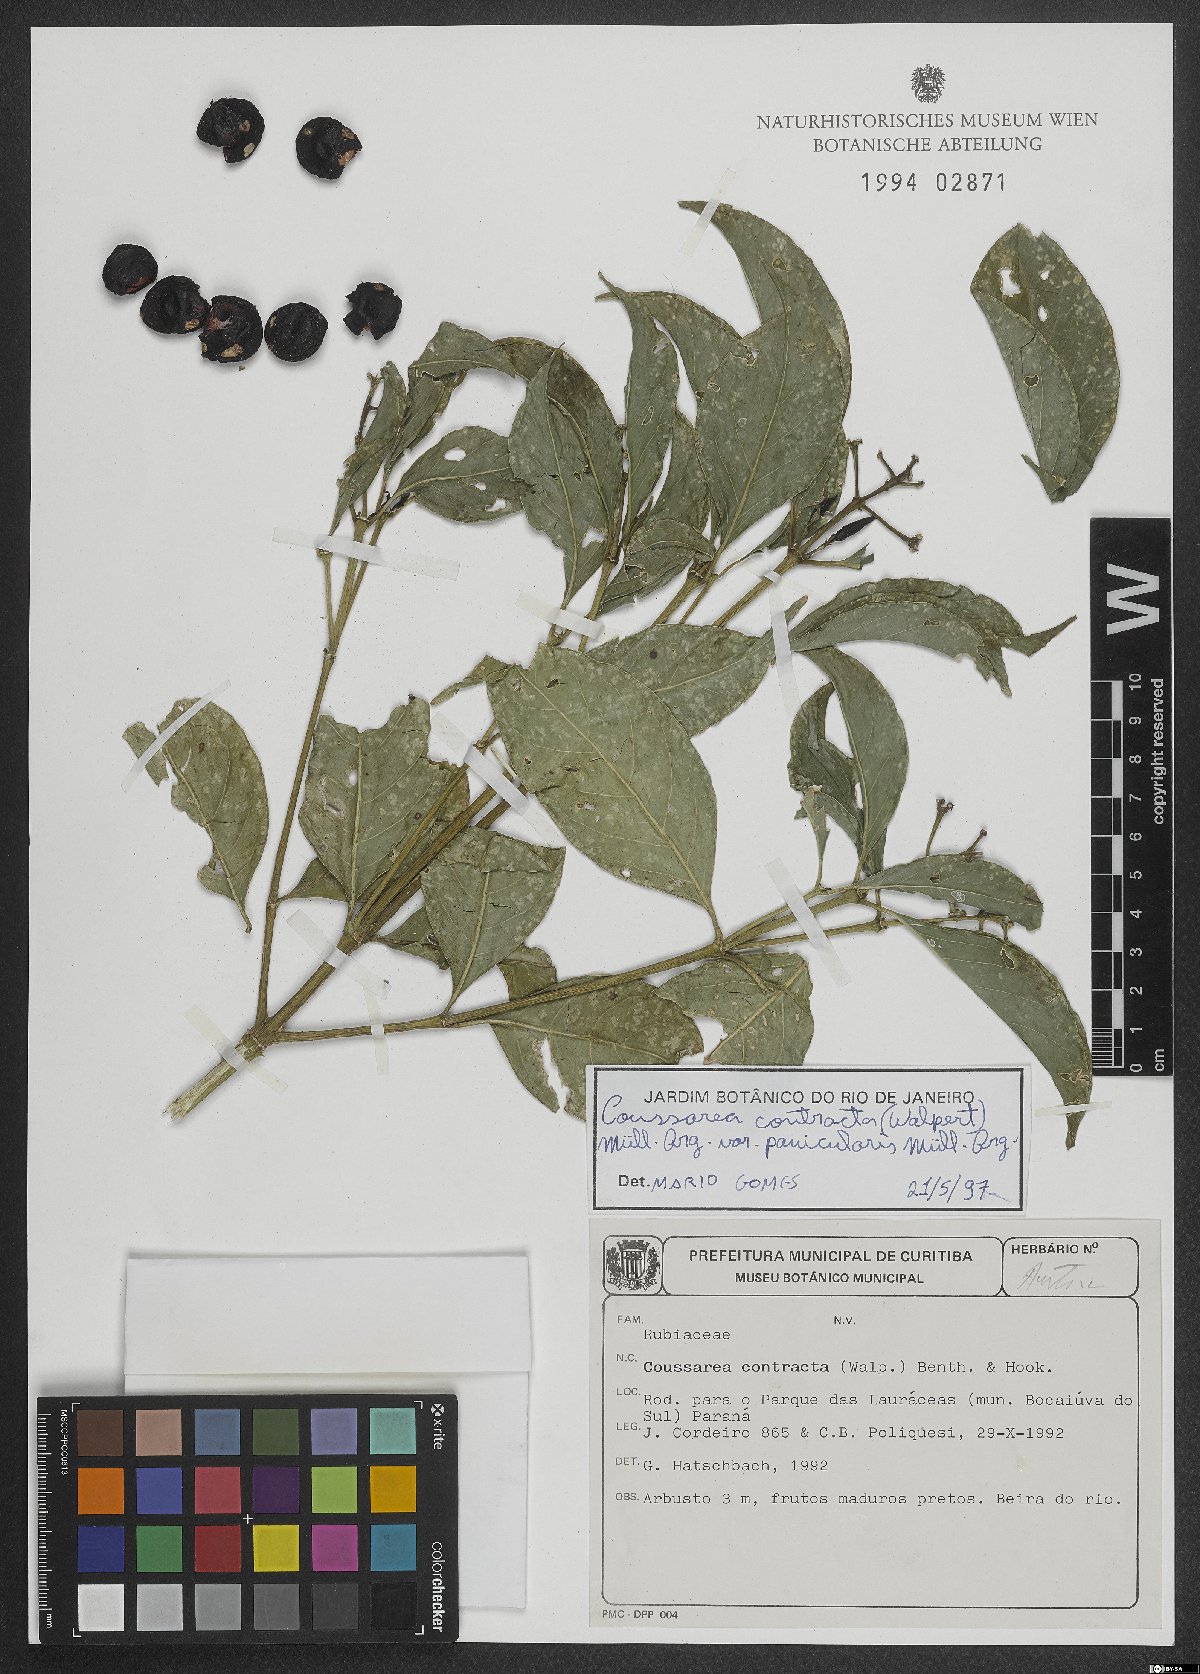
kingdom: Plantae
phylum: Tracheophyta
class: Magnoliopsida
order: Gentianales
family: Rubiaceae
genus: Coussarea
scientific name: Coussarea contracta
